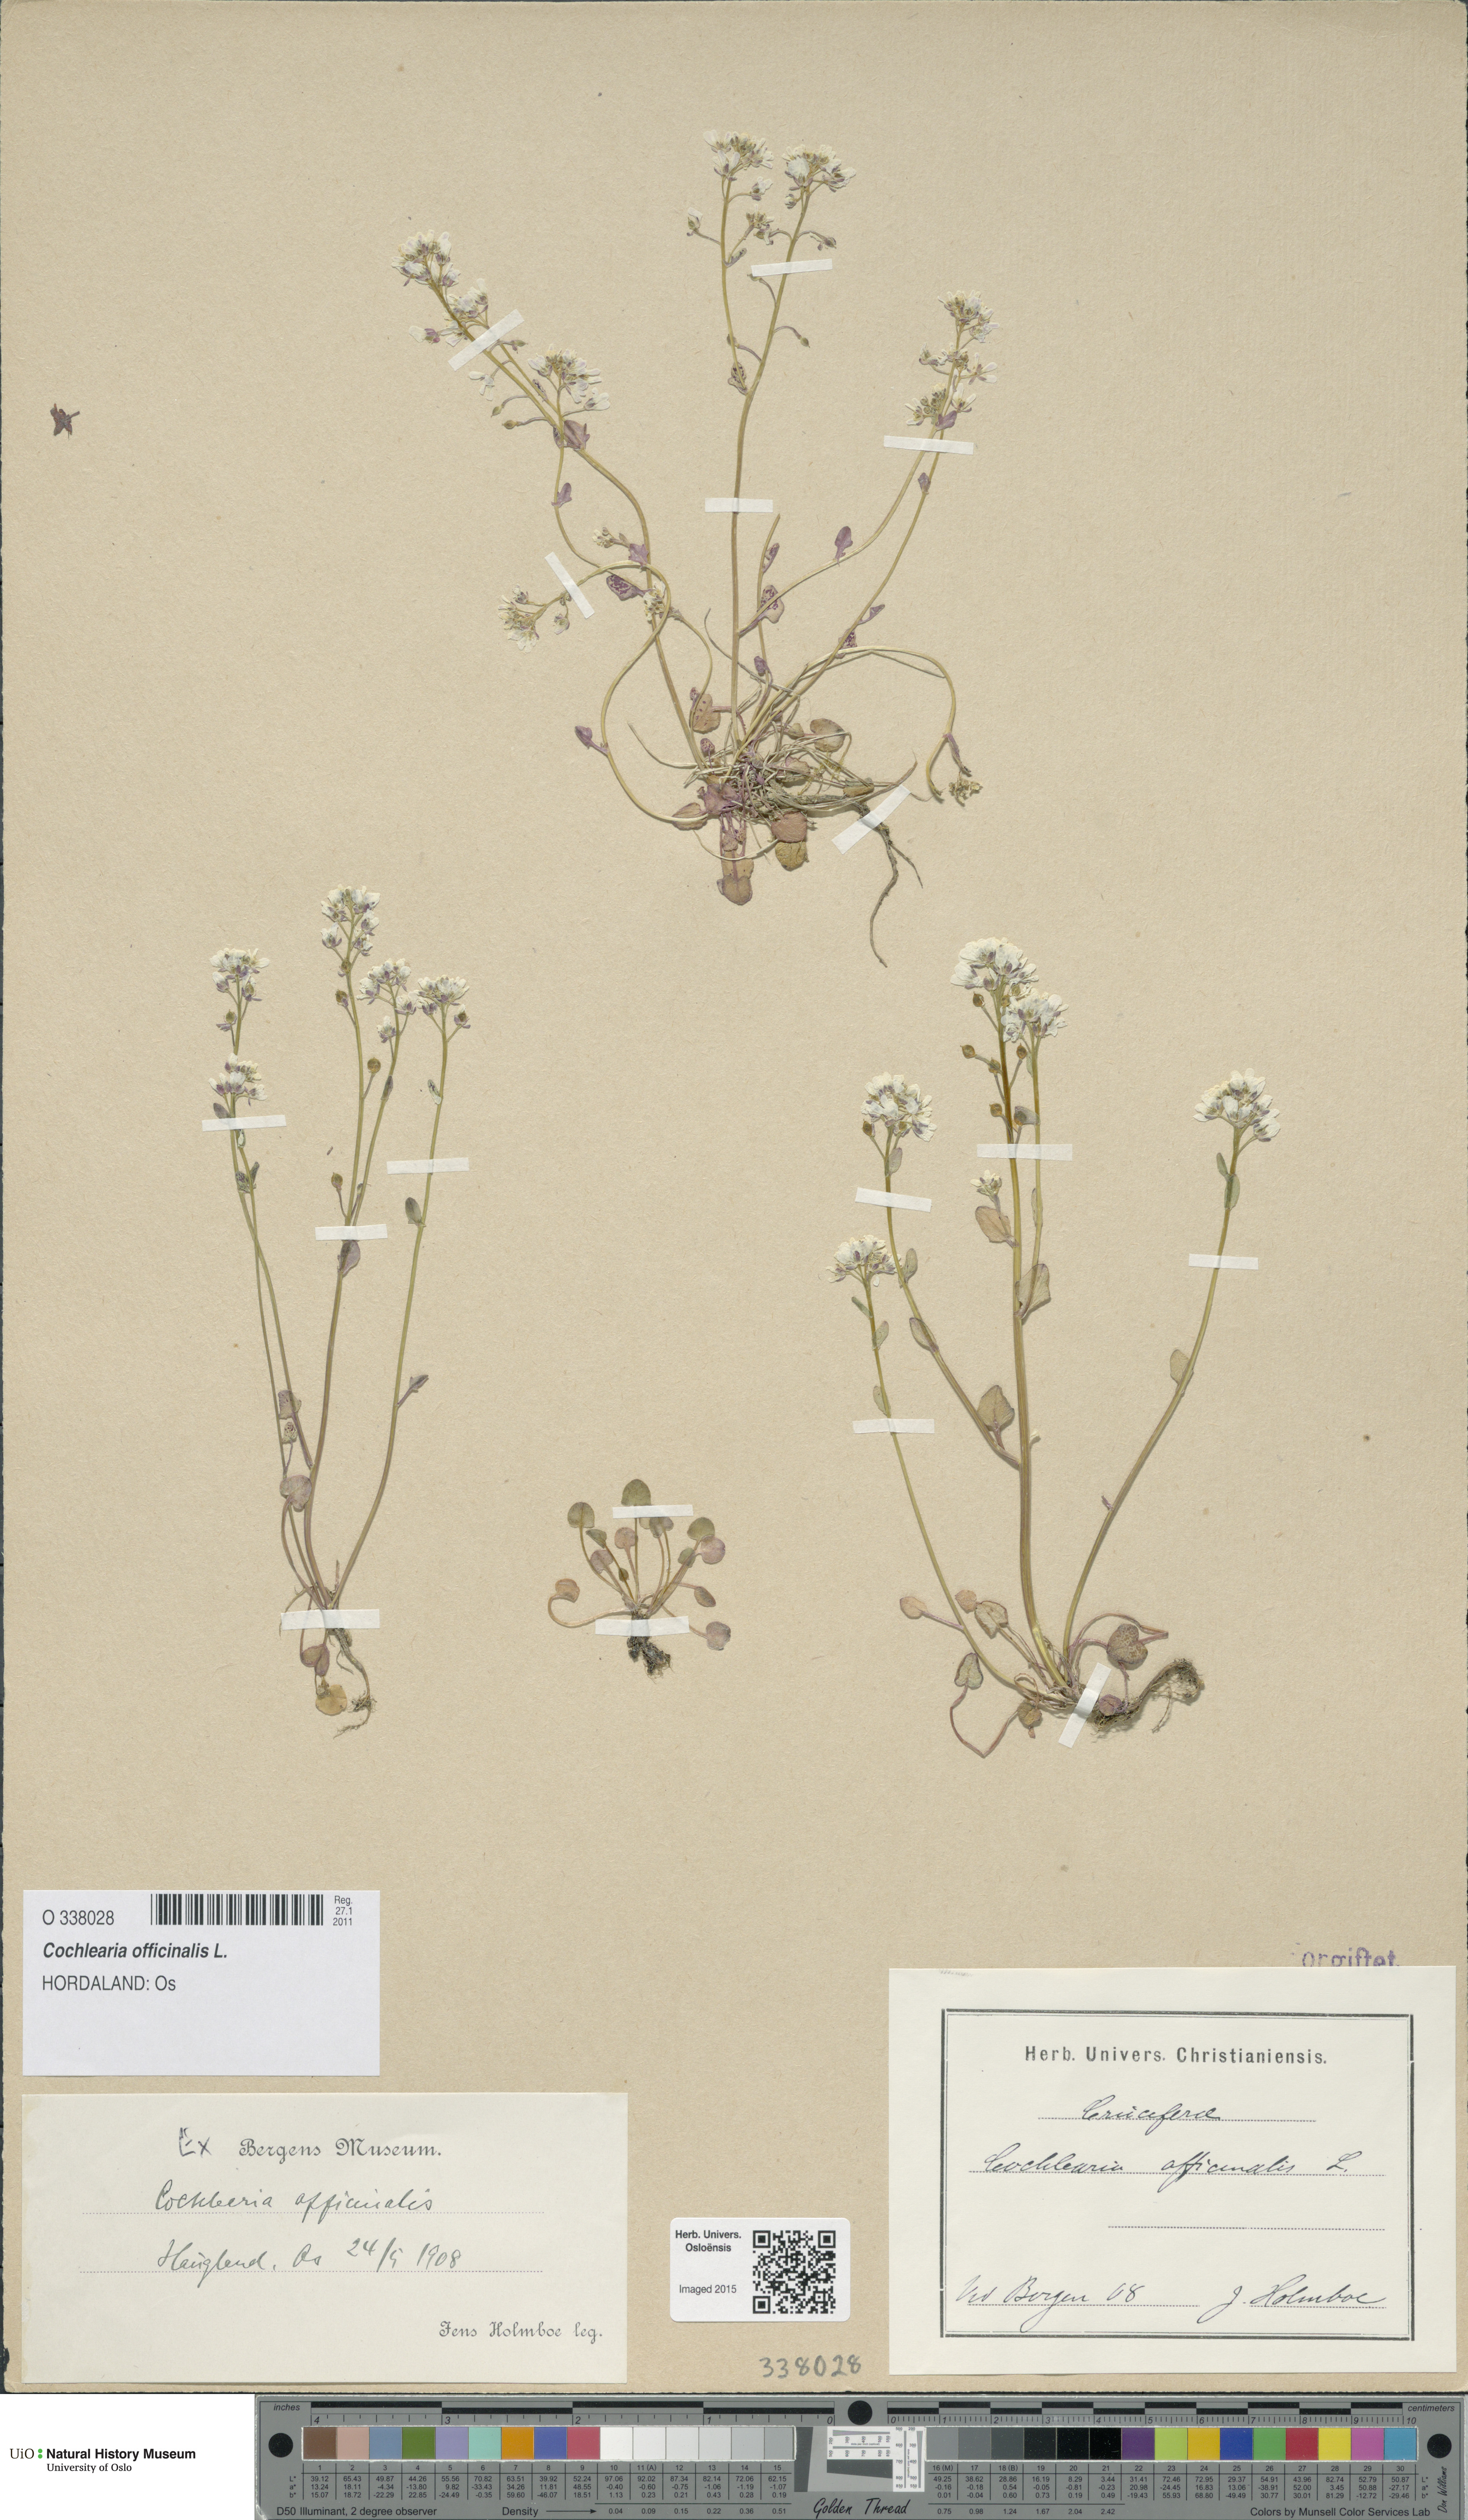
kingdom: Plantae
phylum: Tracheophyta
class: Magnoliopsida
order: Brassicales
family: Brassicaceae
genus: Cochlearia
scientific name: Cochlearia officinalis
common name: Scurvy-grass
